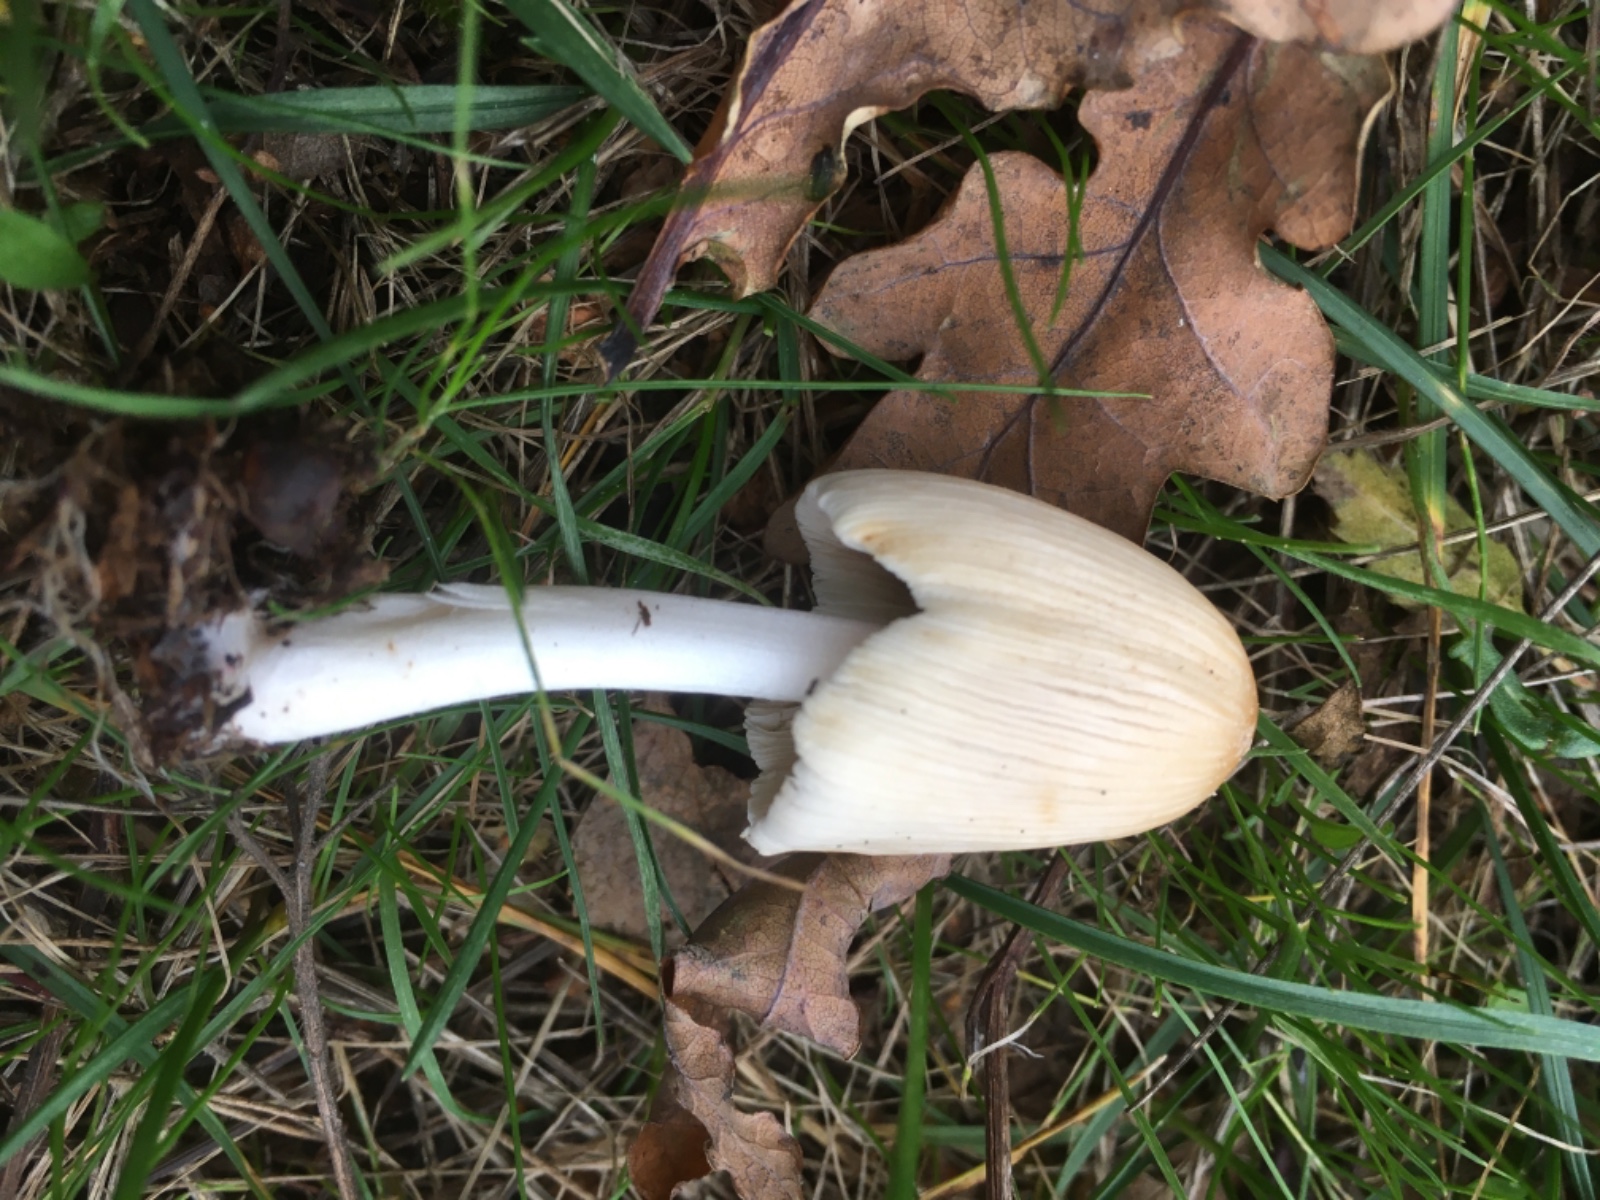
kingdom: Fungi
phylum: Basidiomycota
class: Agaricomycetes
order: Agaricales
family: Psathyrellaceae
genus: Coprinellus
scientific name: Coprinellus domesticus
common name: hus-blækhat
